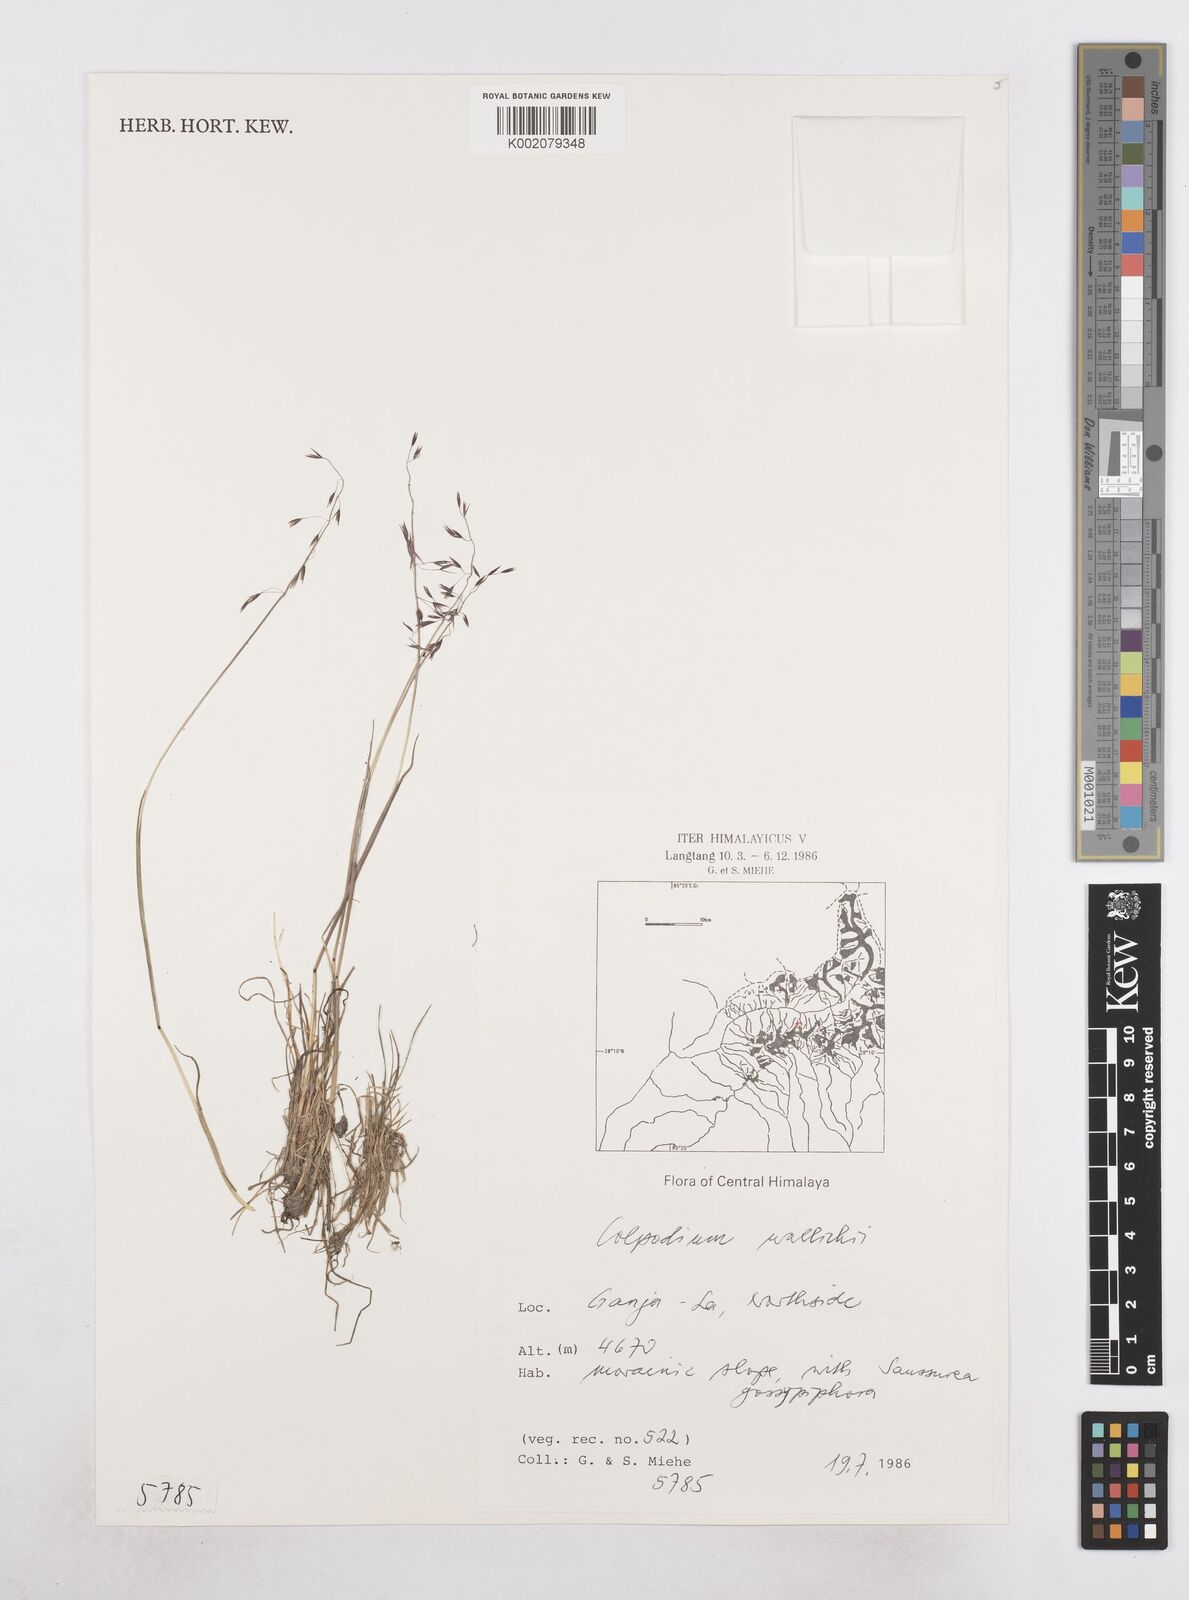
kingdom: Plantae
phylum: Tracheophyta
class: Liliopsida
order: Poales
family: Poaceae
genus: Paracolpodium
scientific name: Paracolpodium wallichii
